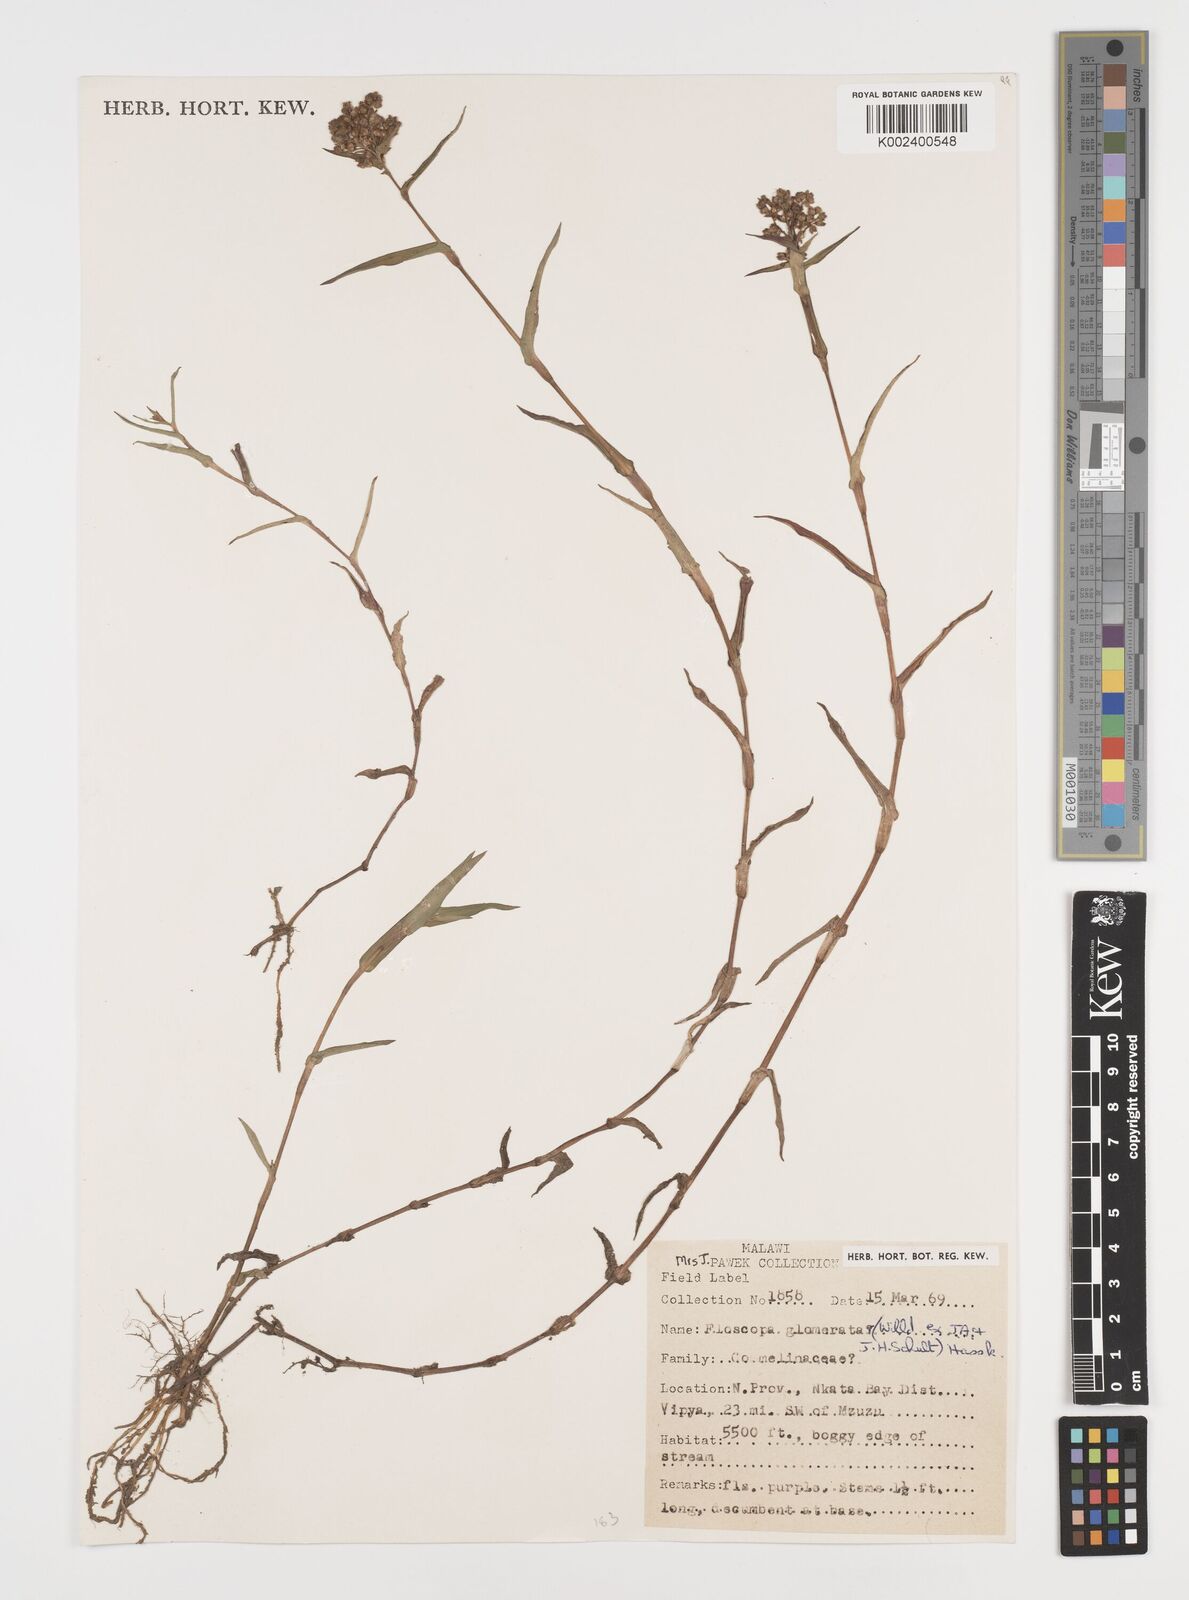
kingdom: Plantae
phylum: Tracheophyta
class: Liliopsida
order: Commelinales
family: Commelinaceae
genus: Floscopa
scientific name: Floscopa glomerata
